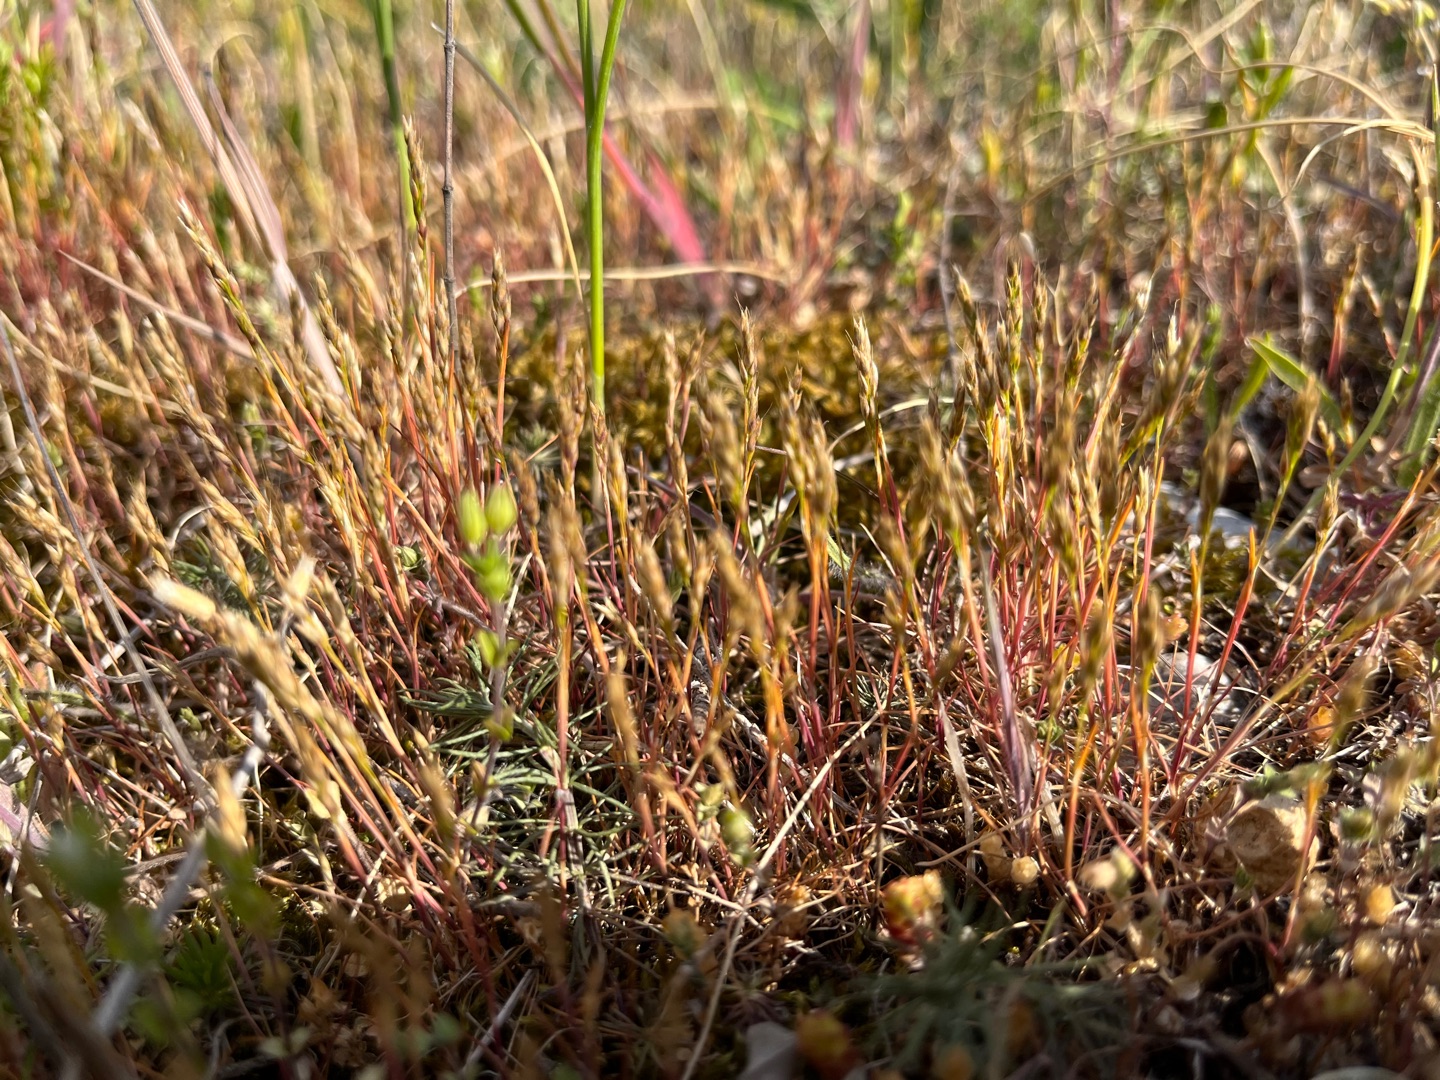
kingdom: Plantae
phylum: Tracheophyta
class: Liliopsida
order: Poales
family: Poaceae
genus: Aira
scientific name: Aira praecox
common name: Tidlig dværgbunke
